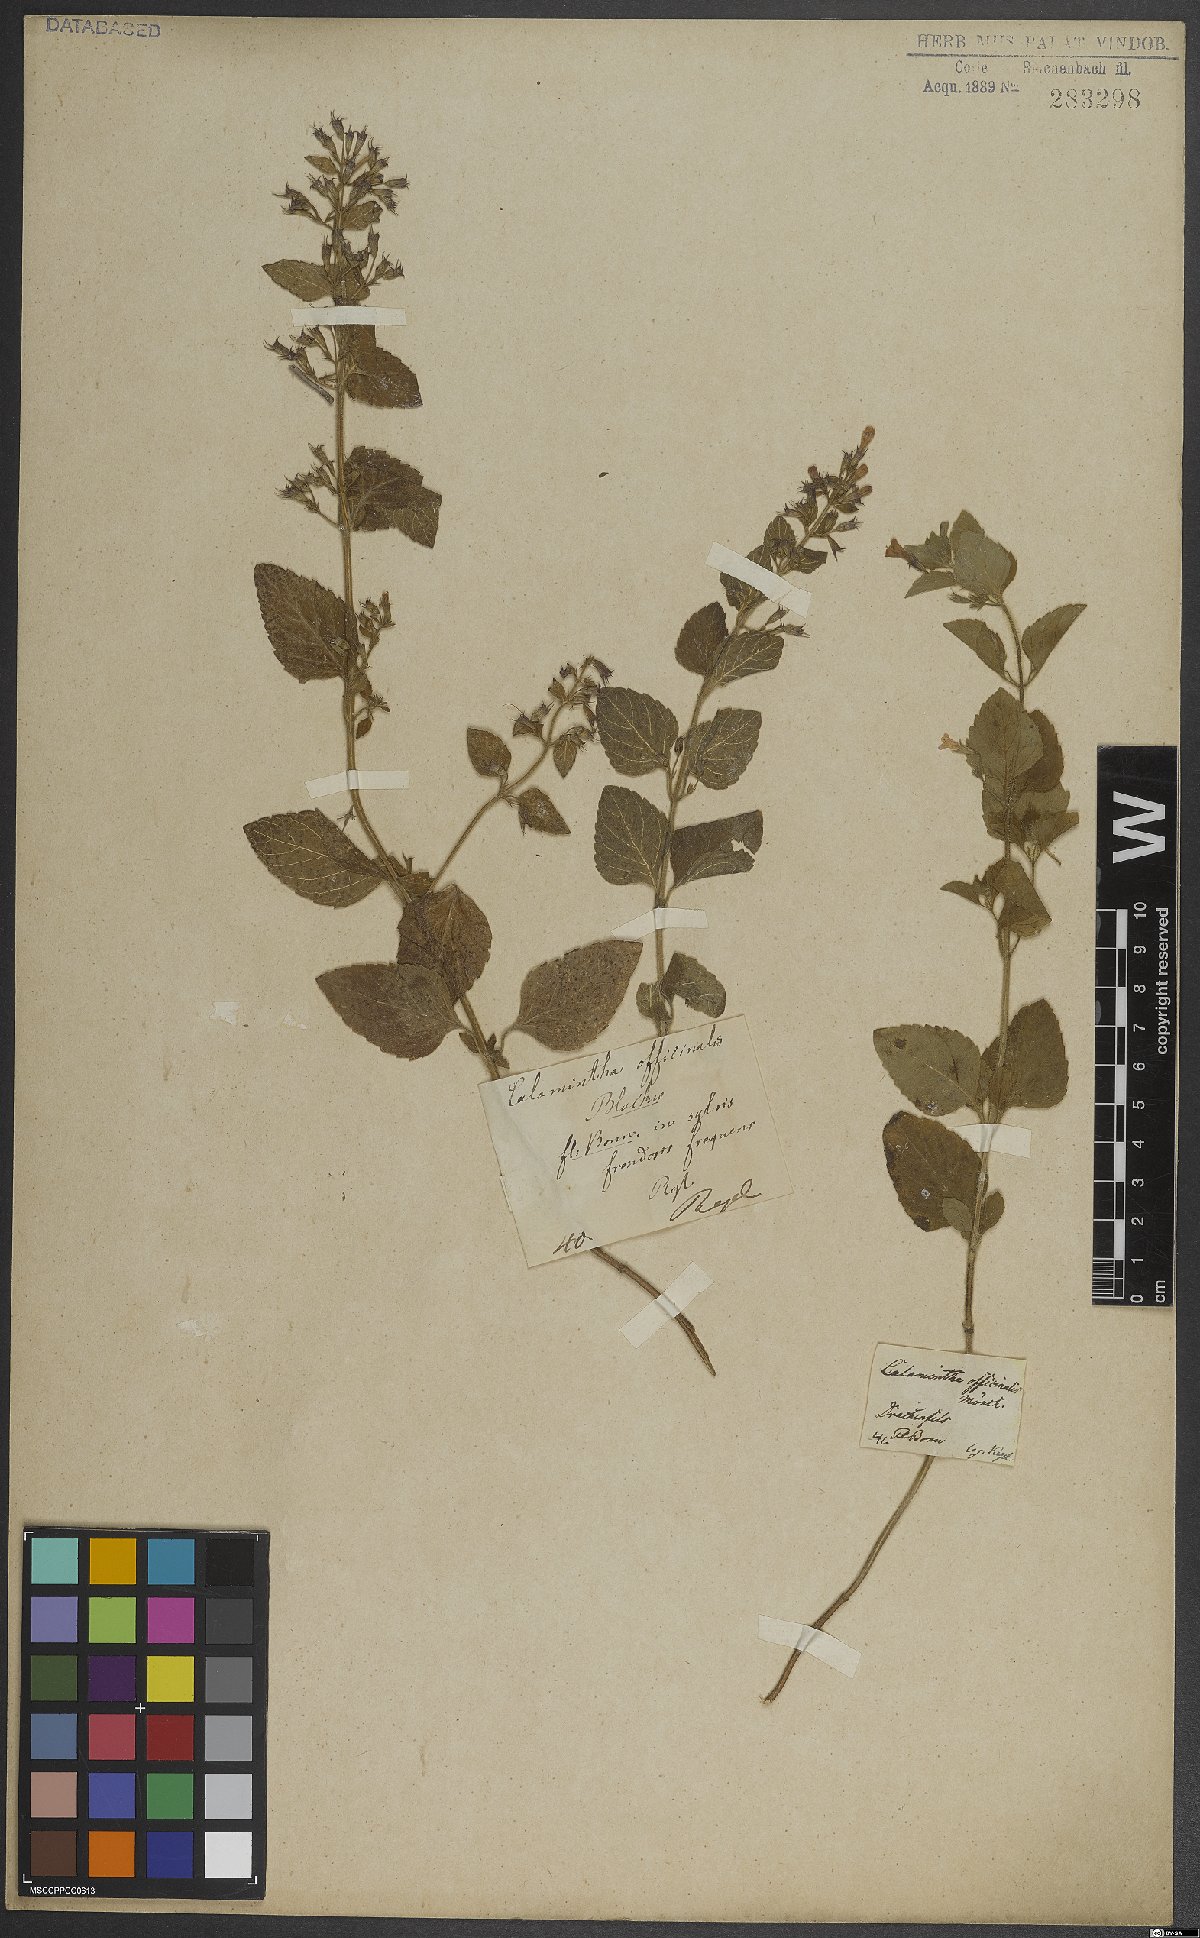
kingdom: Plantae
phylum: Tracheophyta
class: Magnoliopsida
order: Lamiales
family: Lamiaceae
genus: Clinopodium
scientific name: Clinopodium nepeta
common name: Lesser calamint
